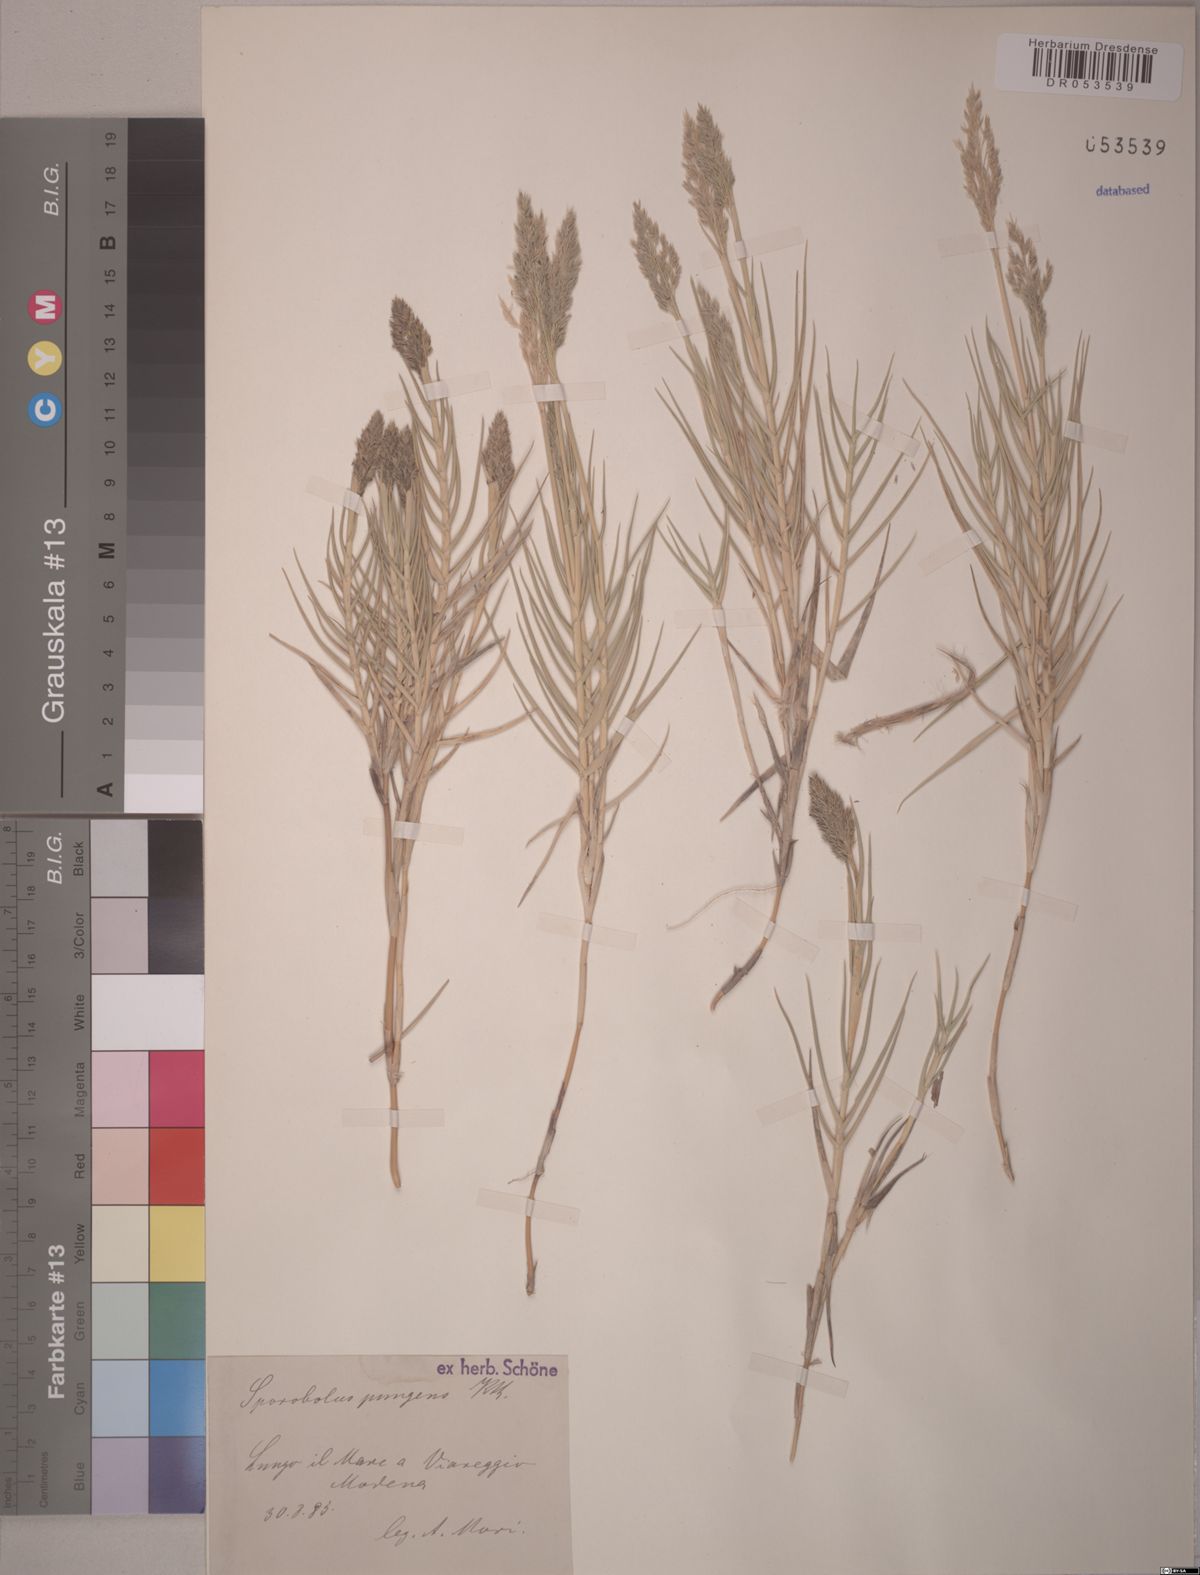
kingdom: Plantae
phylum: Tracheophyta
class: Liliopsida
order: Poales
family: Poaceae
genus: Sporobolus
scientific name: Sporobolus pungens
